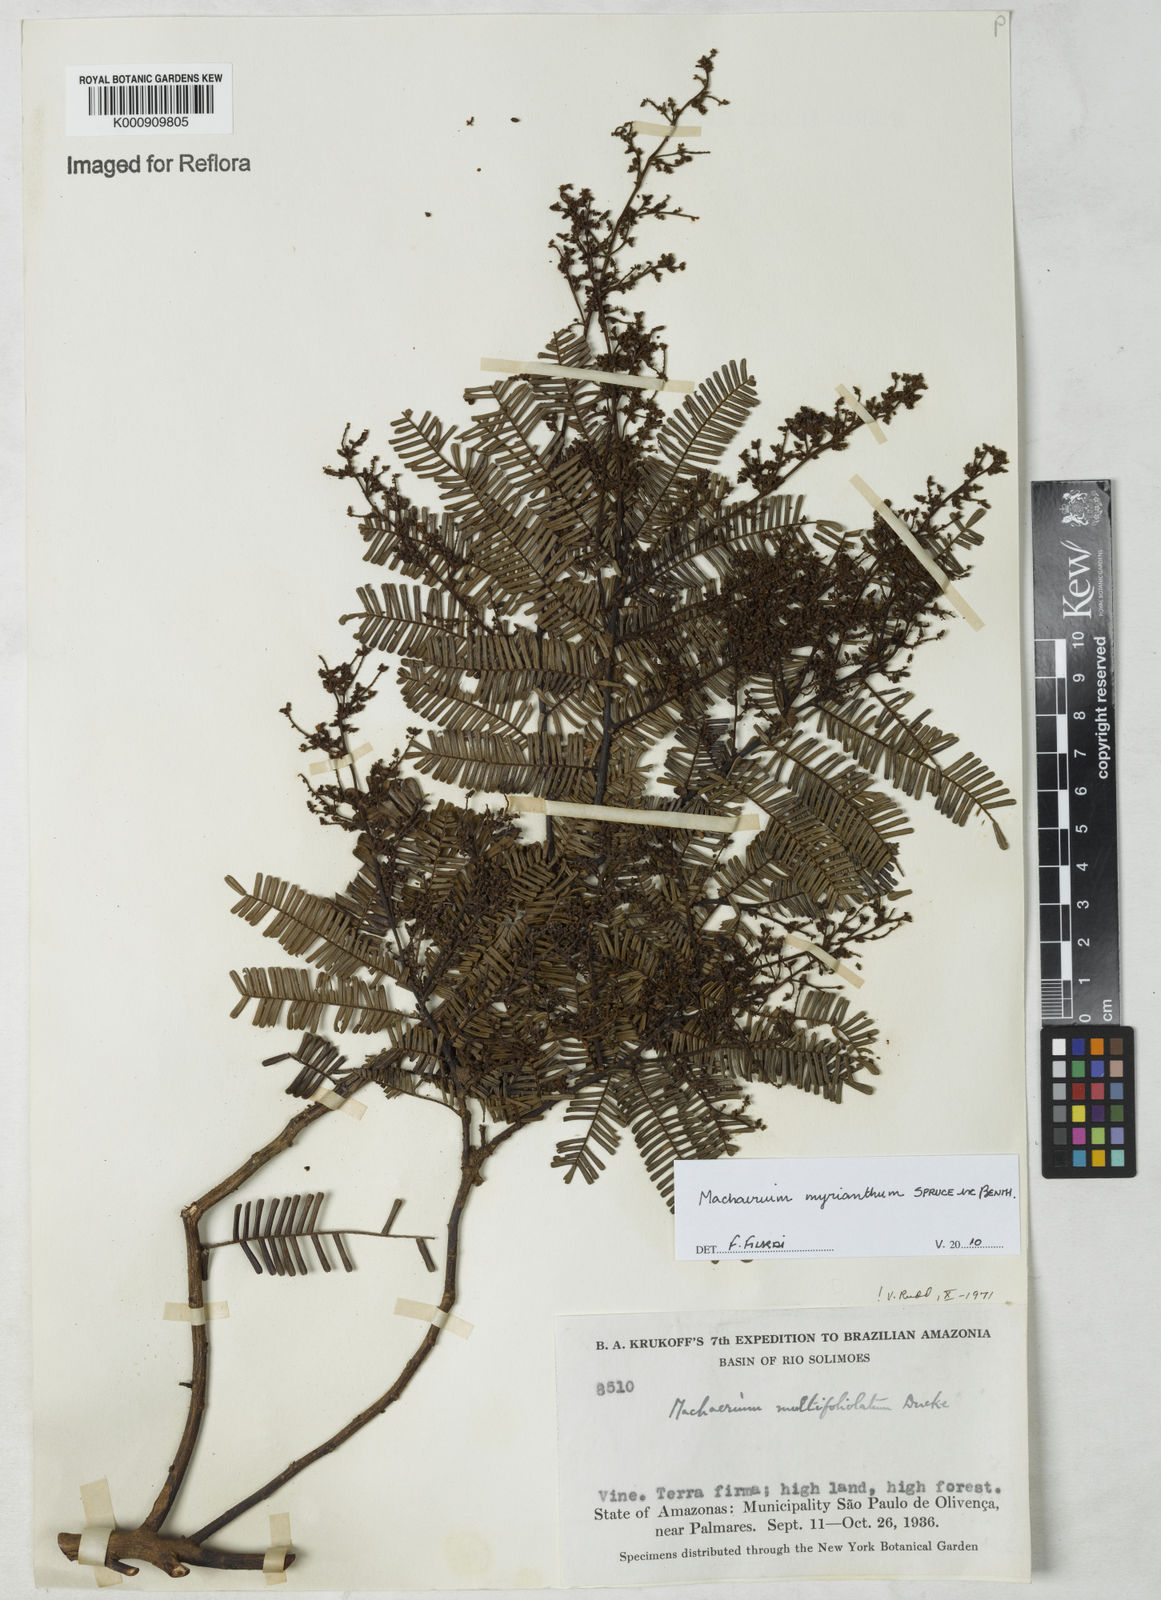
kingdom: Plantae
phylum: Tracheophyta
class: Magnoliopsida
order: Fabales
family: Fabaceae
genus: Machaerium
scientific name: Machaerium multifoliolatum
